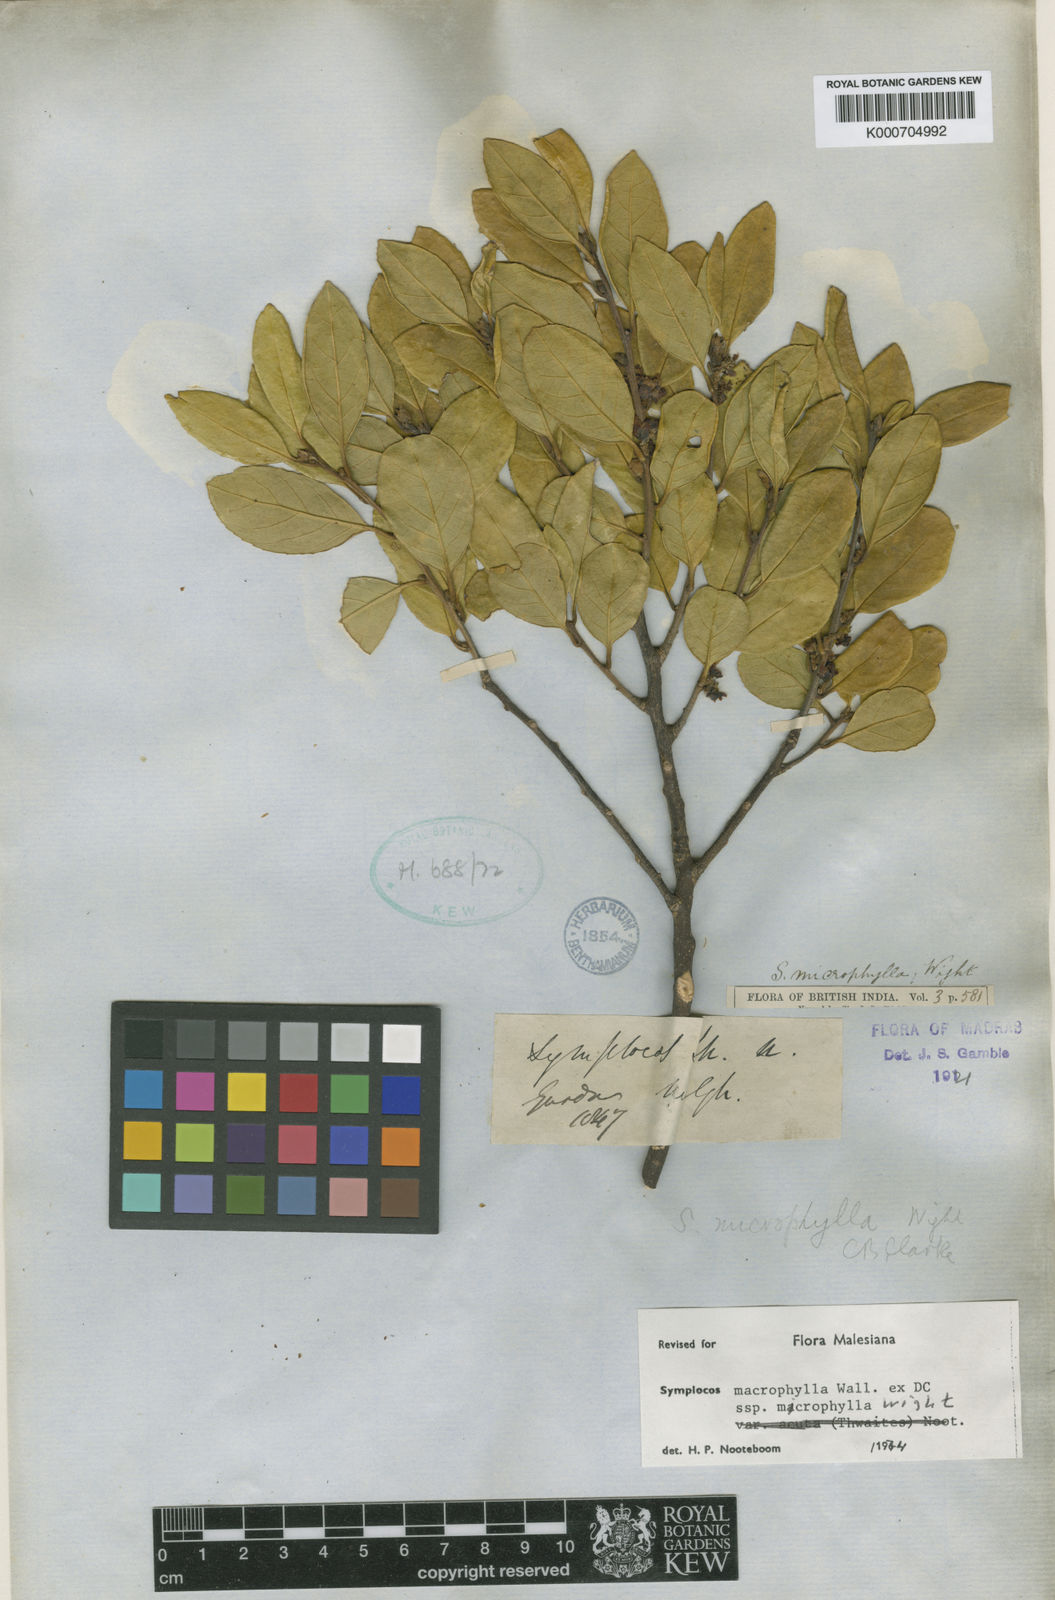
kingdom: Plantae
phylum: Tracheophyta
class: Magnoliopsida
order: Ericales
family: Symplocaceae
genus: Symplocos
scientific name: Symplocos
